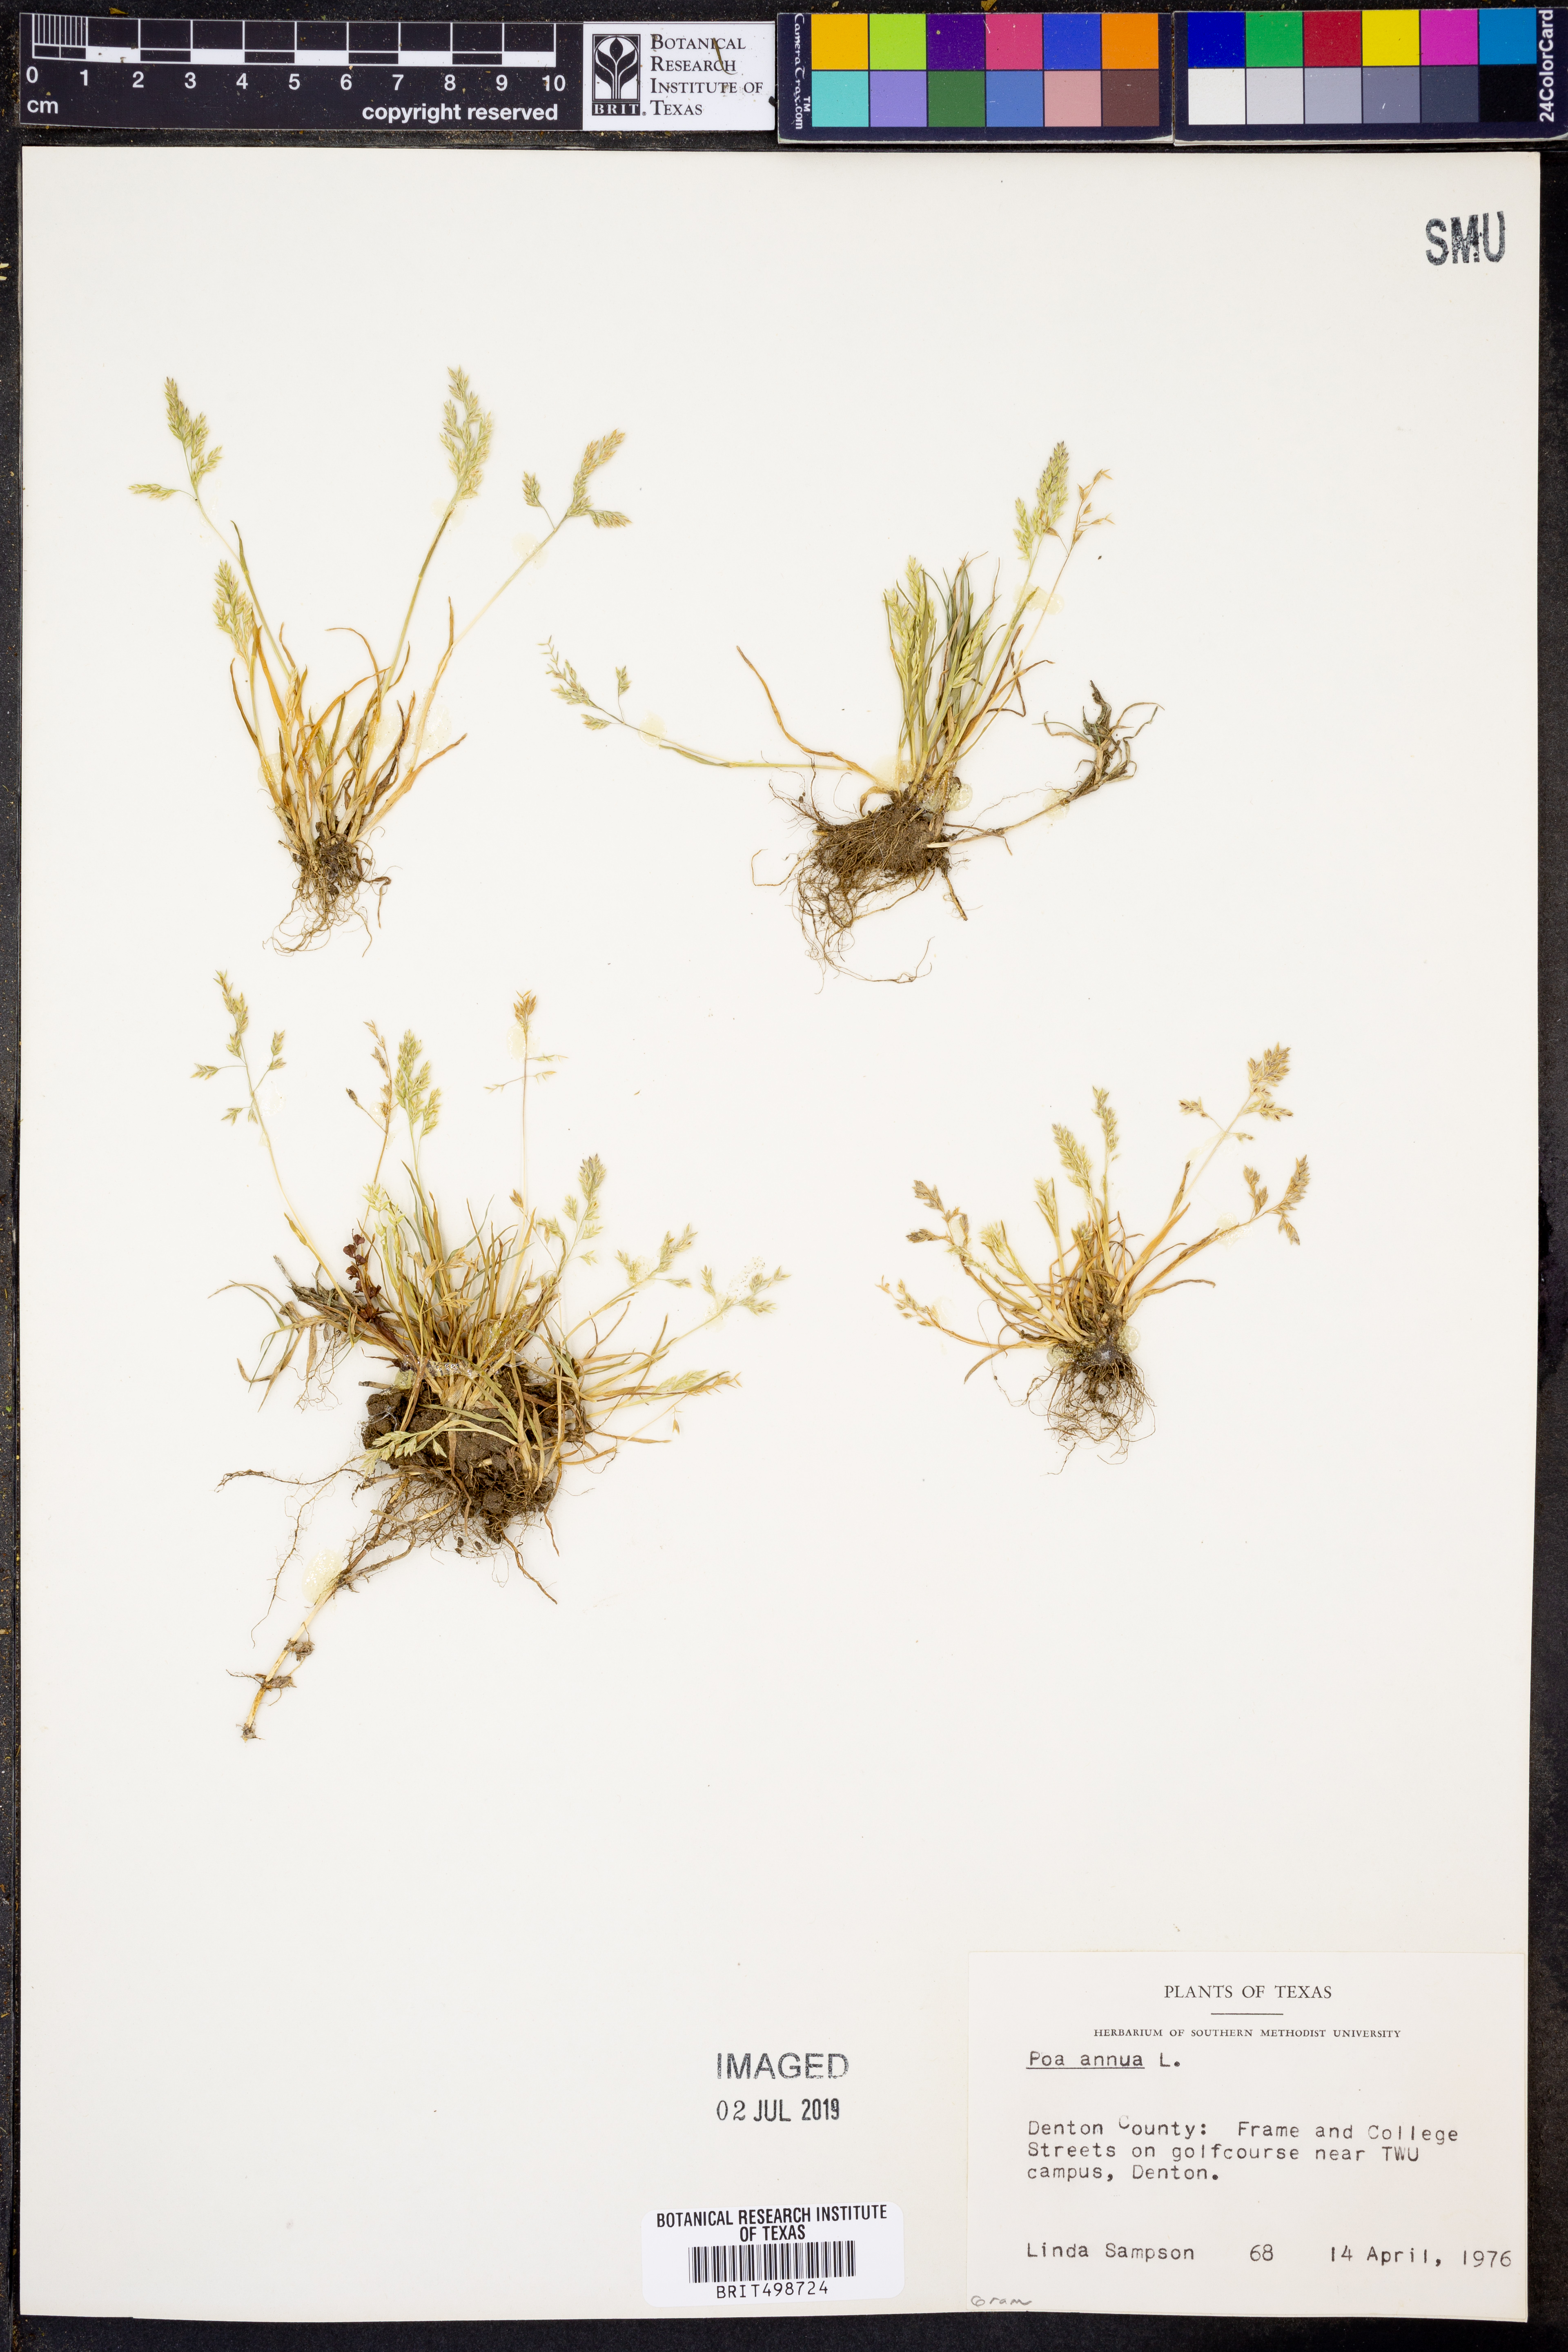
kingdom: Plantae
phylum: Tracheophyta
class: Liliopsida
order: Poales
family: Poaceae
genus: Poa
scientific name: Poa annua
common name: Annual bluegrass
